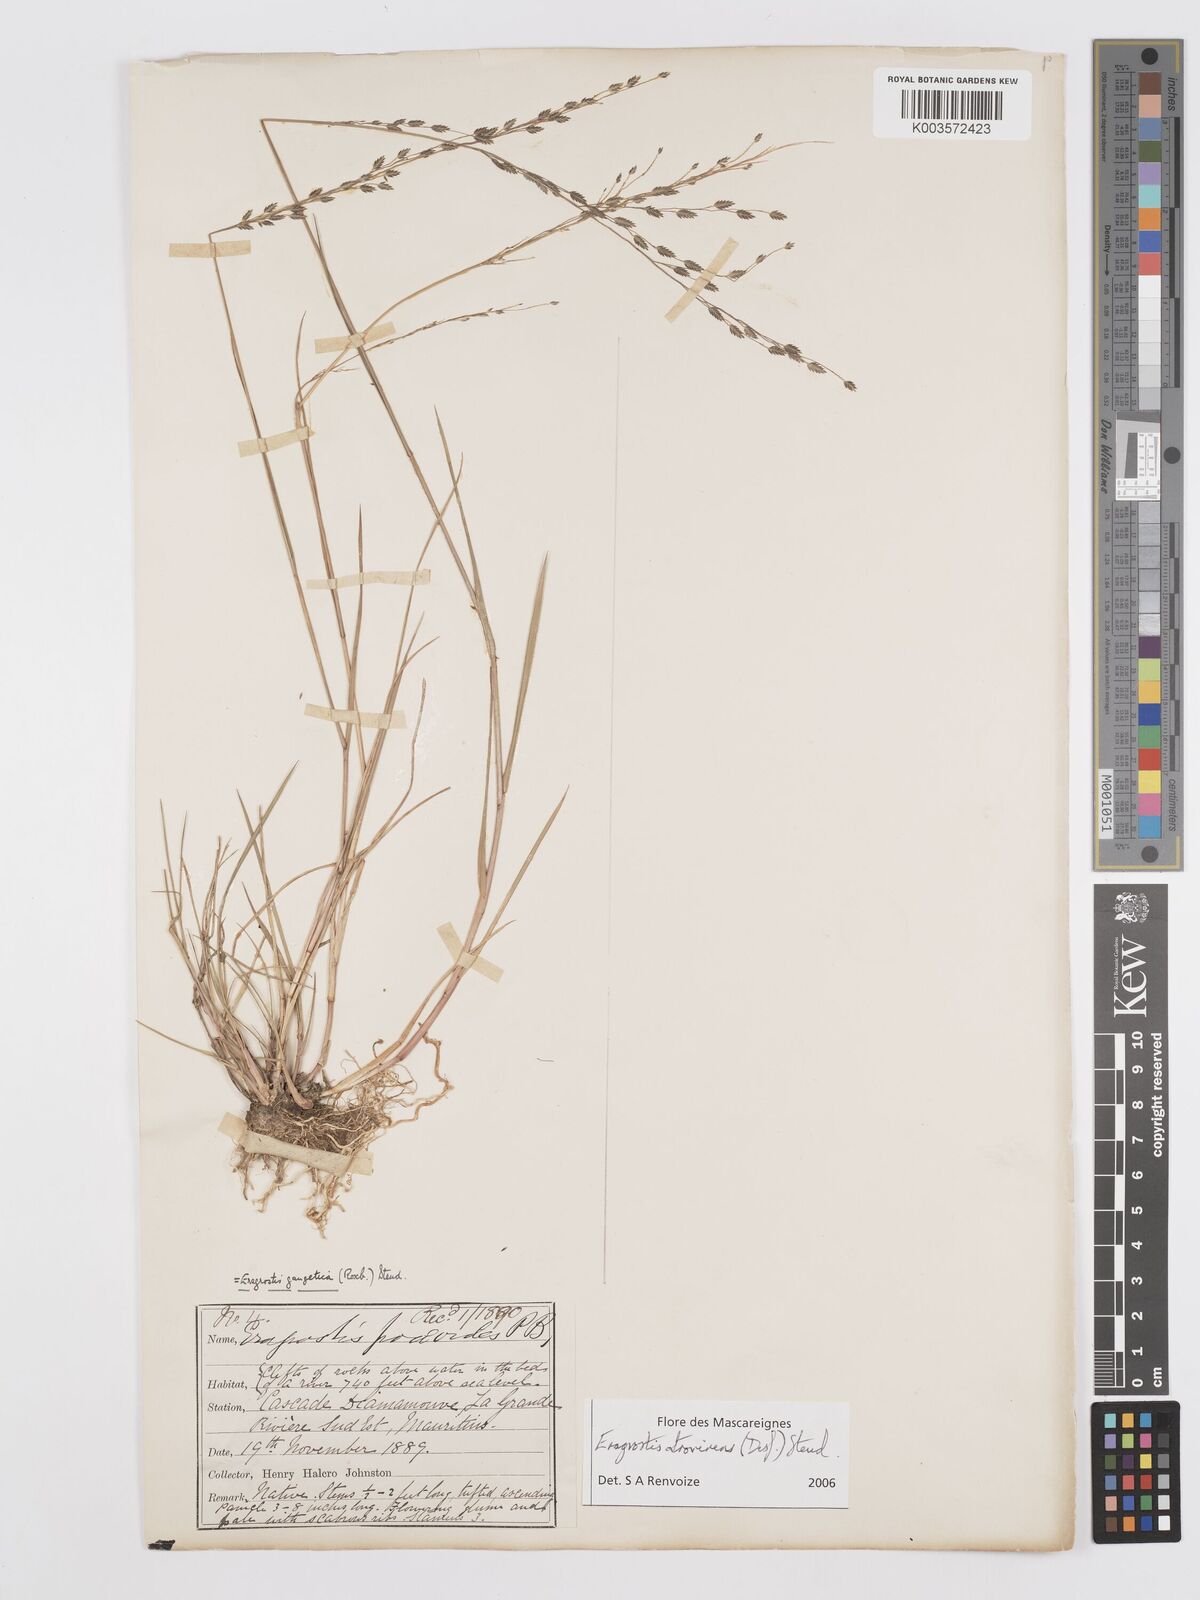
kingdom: Plantae
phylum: Tracheophyta
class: Liliopsida
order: Poales
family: Poaceae
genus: Eragrostis
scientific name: Eragrostis papposa
